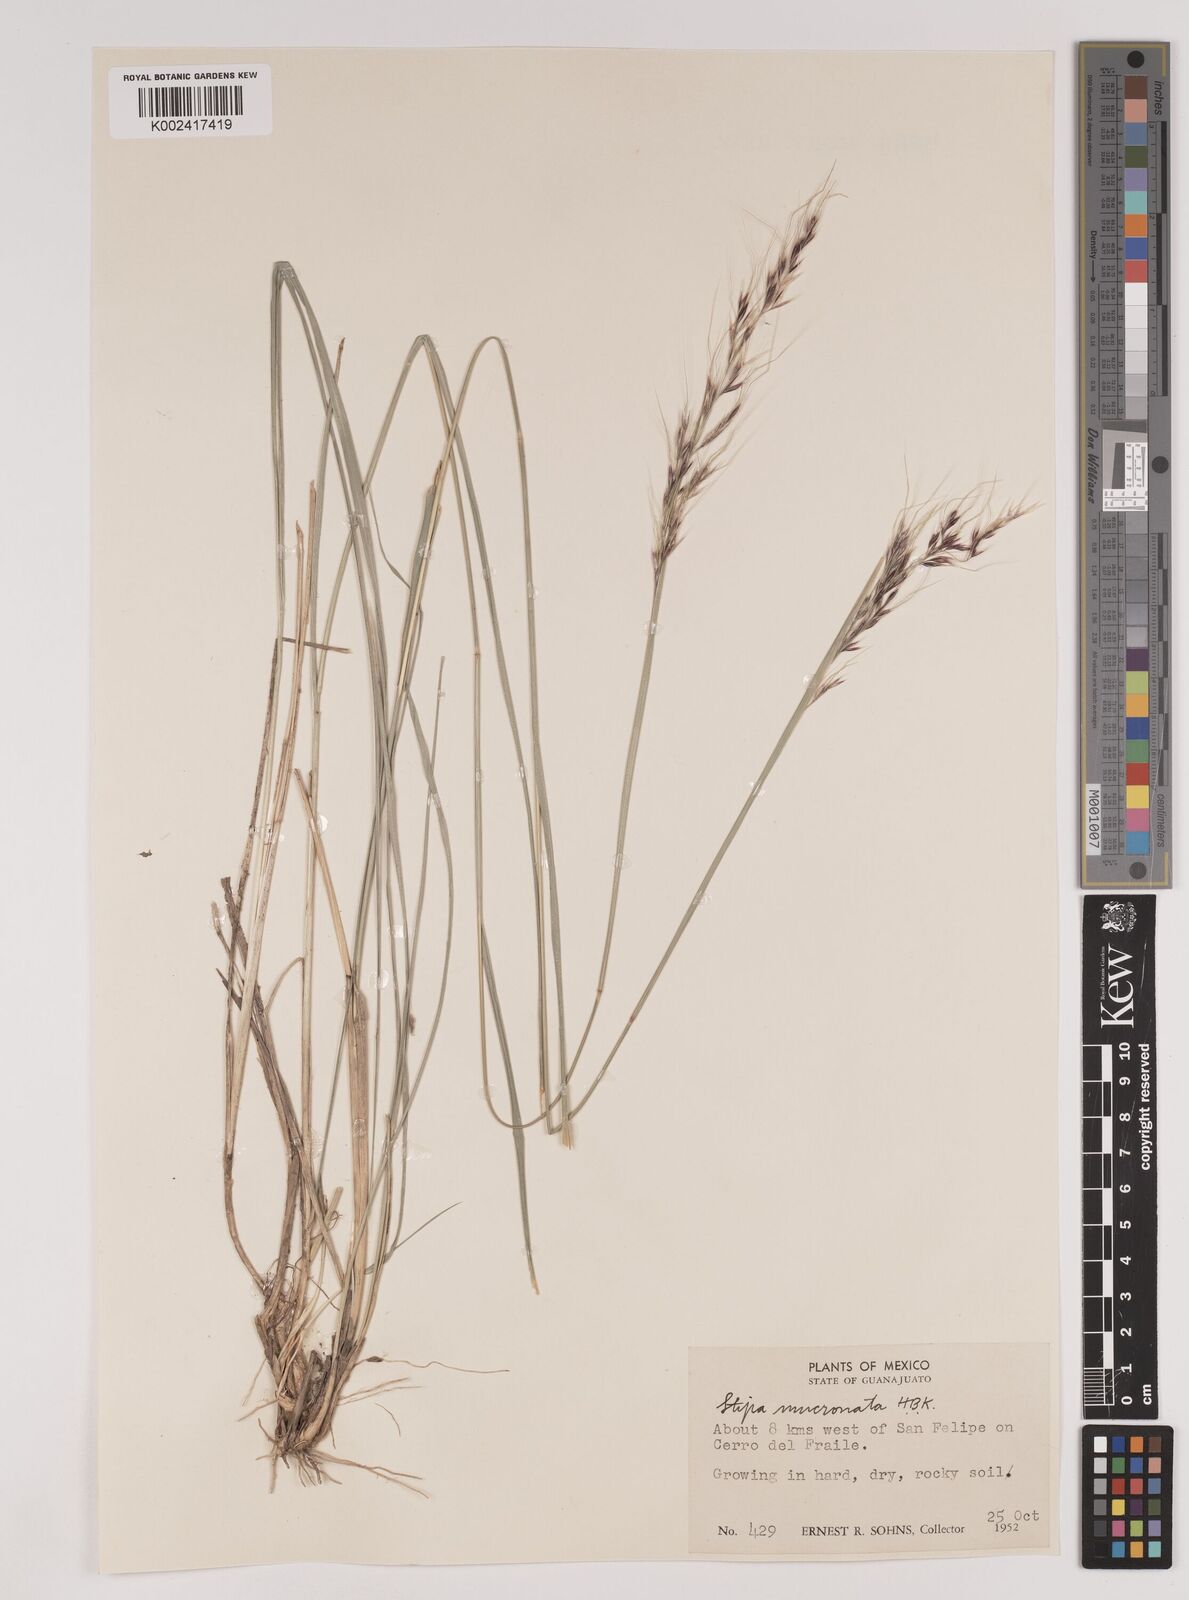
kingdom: Plantae
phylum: Tracheophyta
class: Liliopsida
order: Poales
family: Poaceae
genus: Nassella
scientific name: Nassella mucronata
